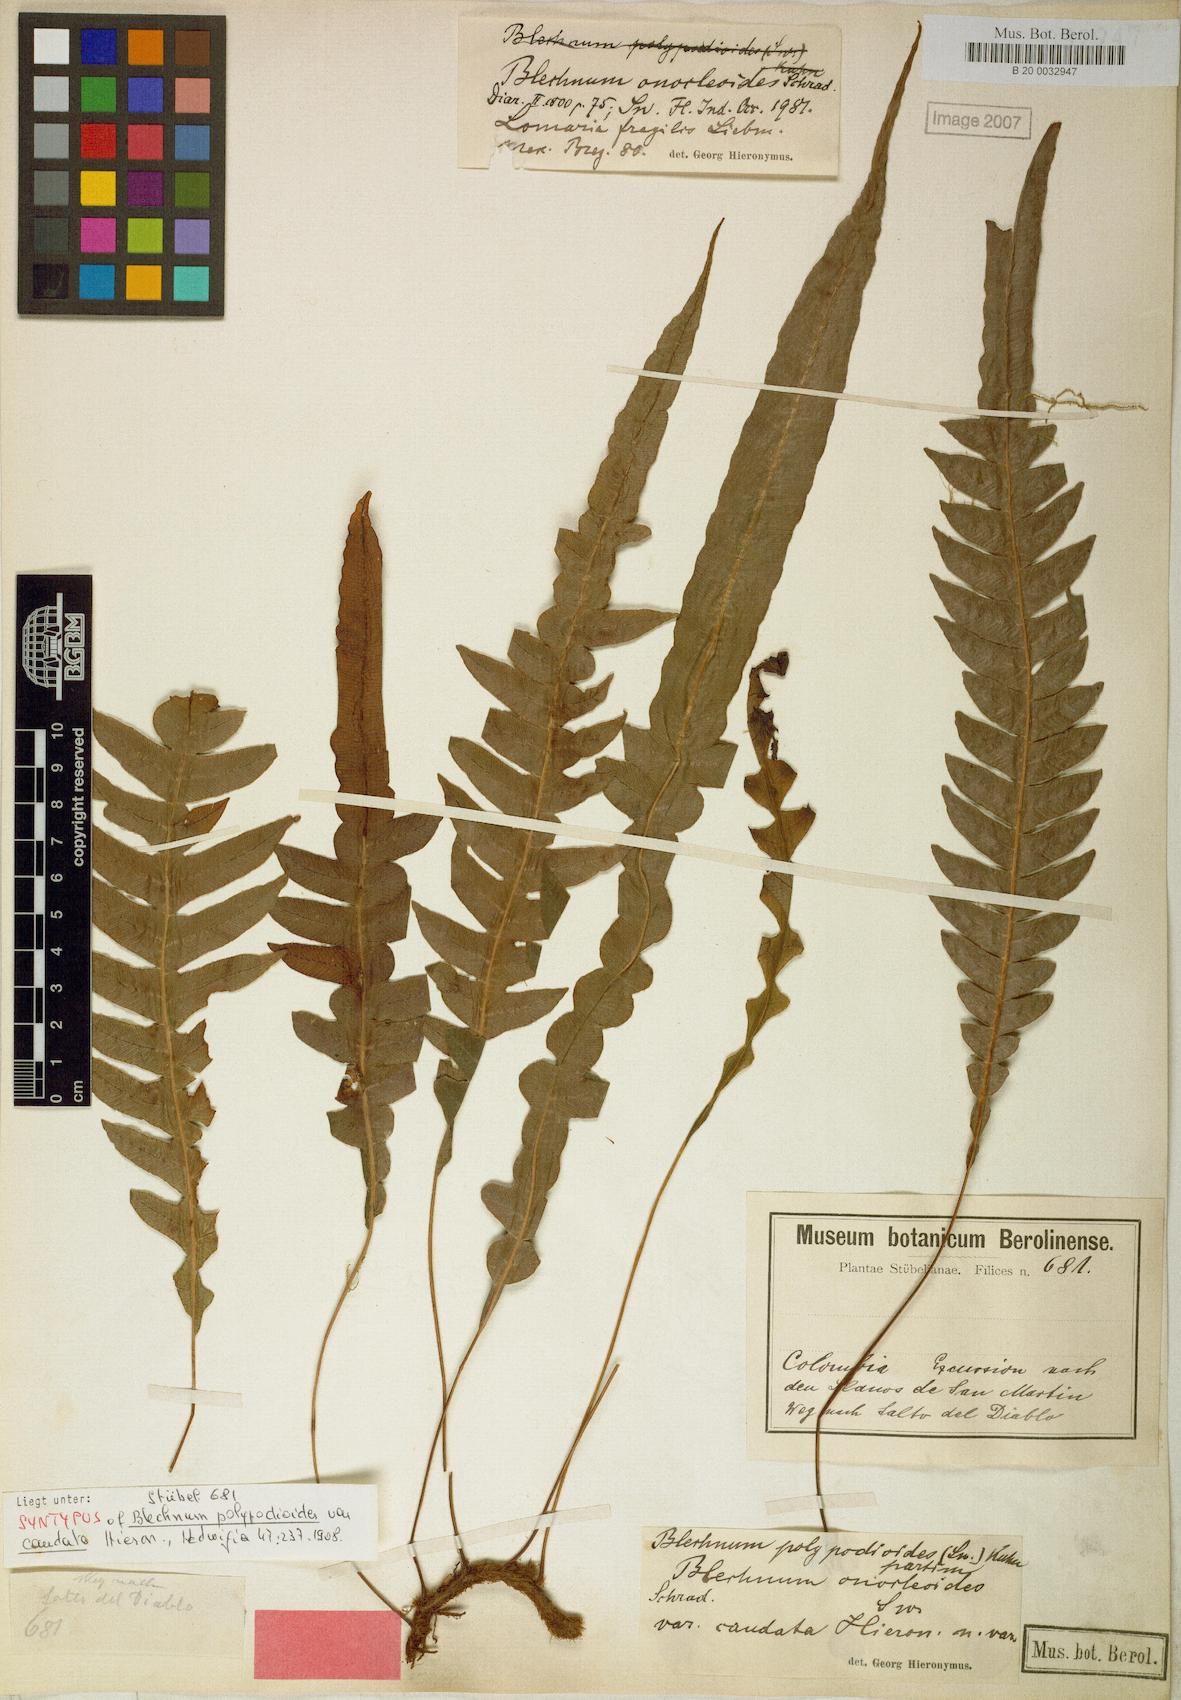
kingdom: Plantae
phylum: Tracheophyta
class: Polypodiopsida
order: Polypodiales
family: Blechnaceae
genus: Lomaridium
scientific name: Lomaridium fragile
